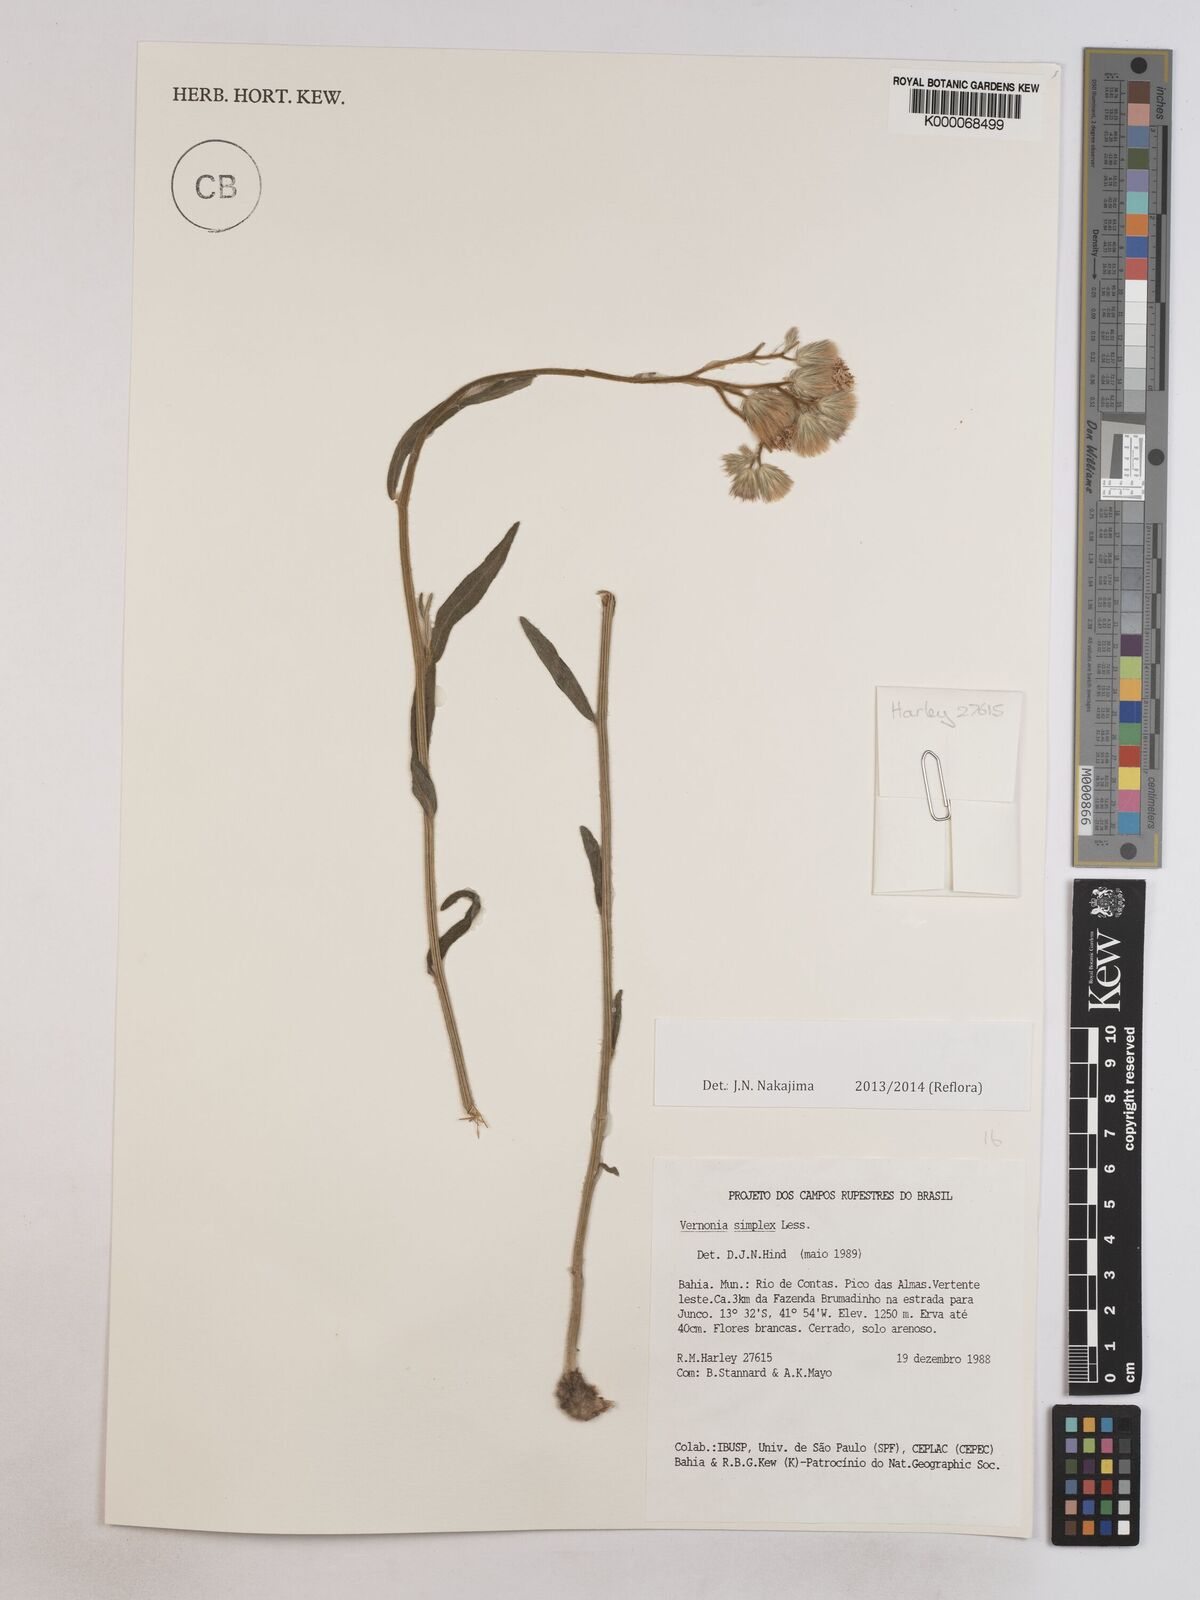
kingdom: Plantae
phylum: Tracheophyta
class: Magnoliopsida
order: Asterales
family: Asteraceae
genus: Chrysolaena
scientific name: Chrysolaena simplex
